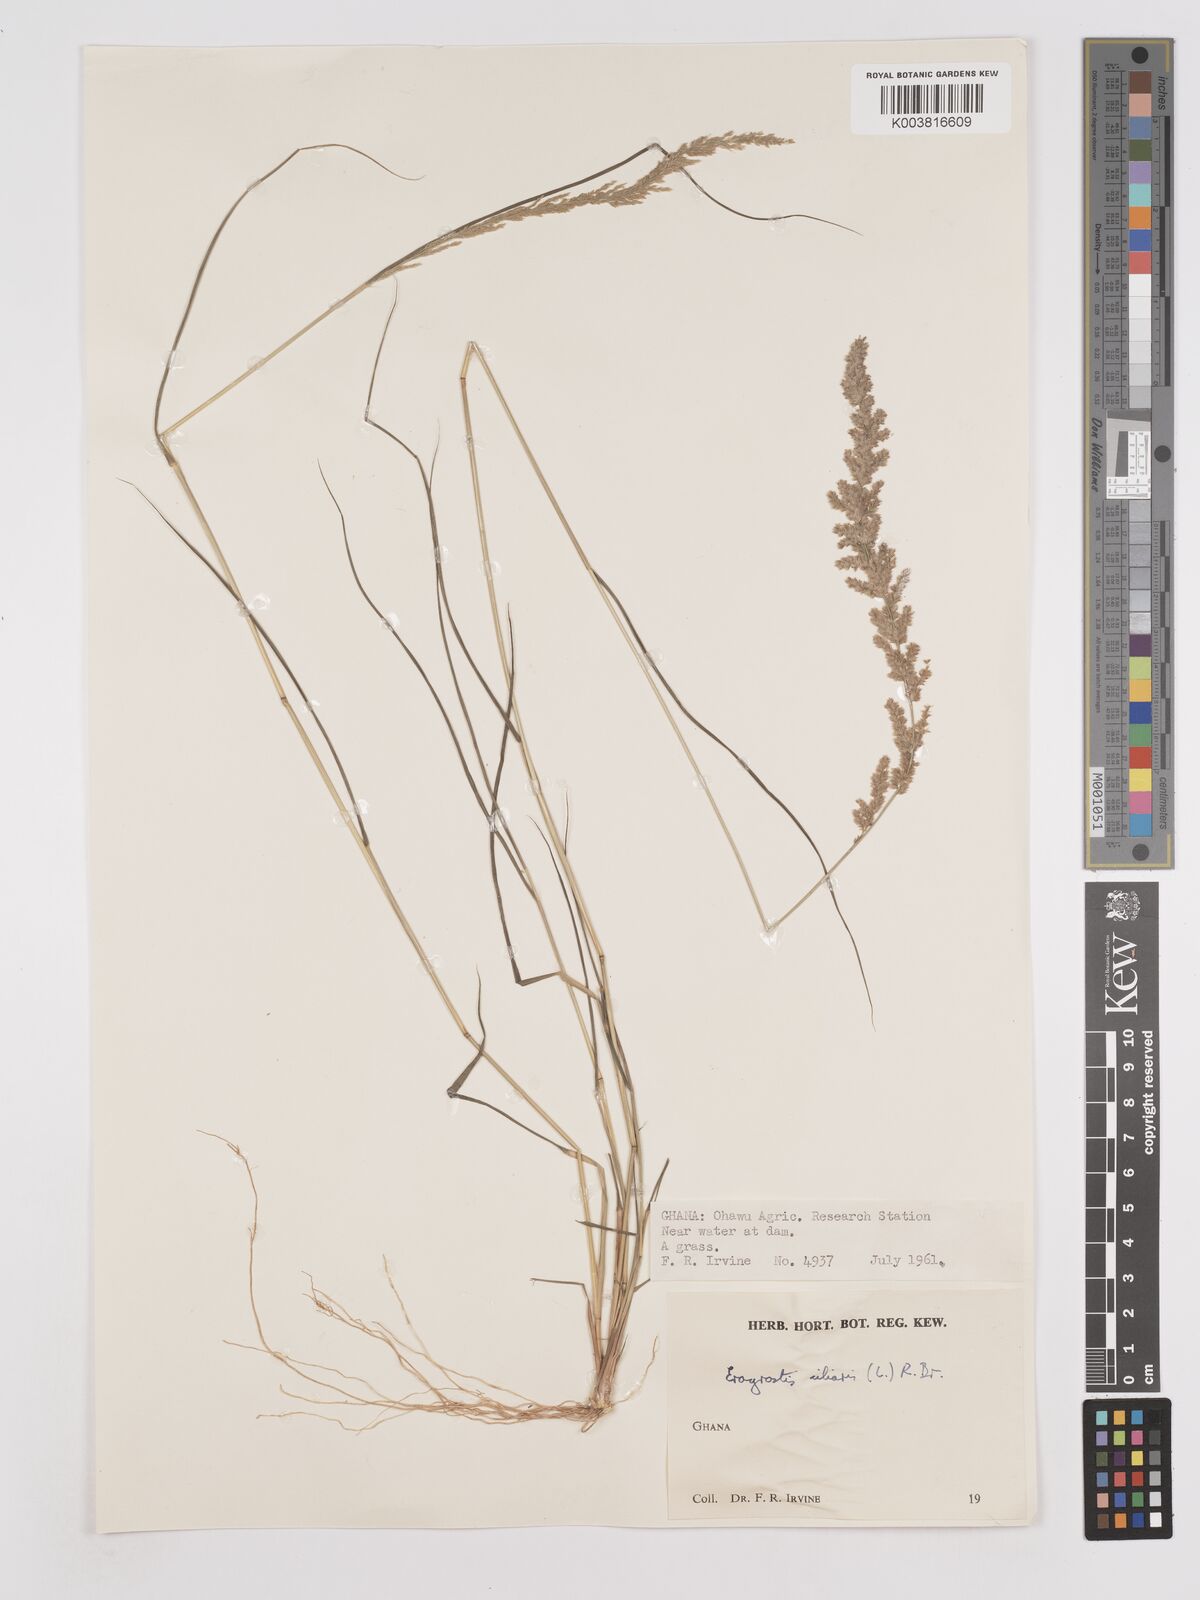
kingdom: Plantae
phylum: Tracheophyta
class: Liliopsida
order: Poales
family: Poaceae
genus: Eragrostis
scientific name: Eragrostis ciliaris
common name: Gophertail lovegrass
